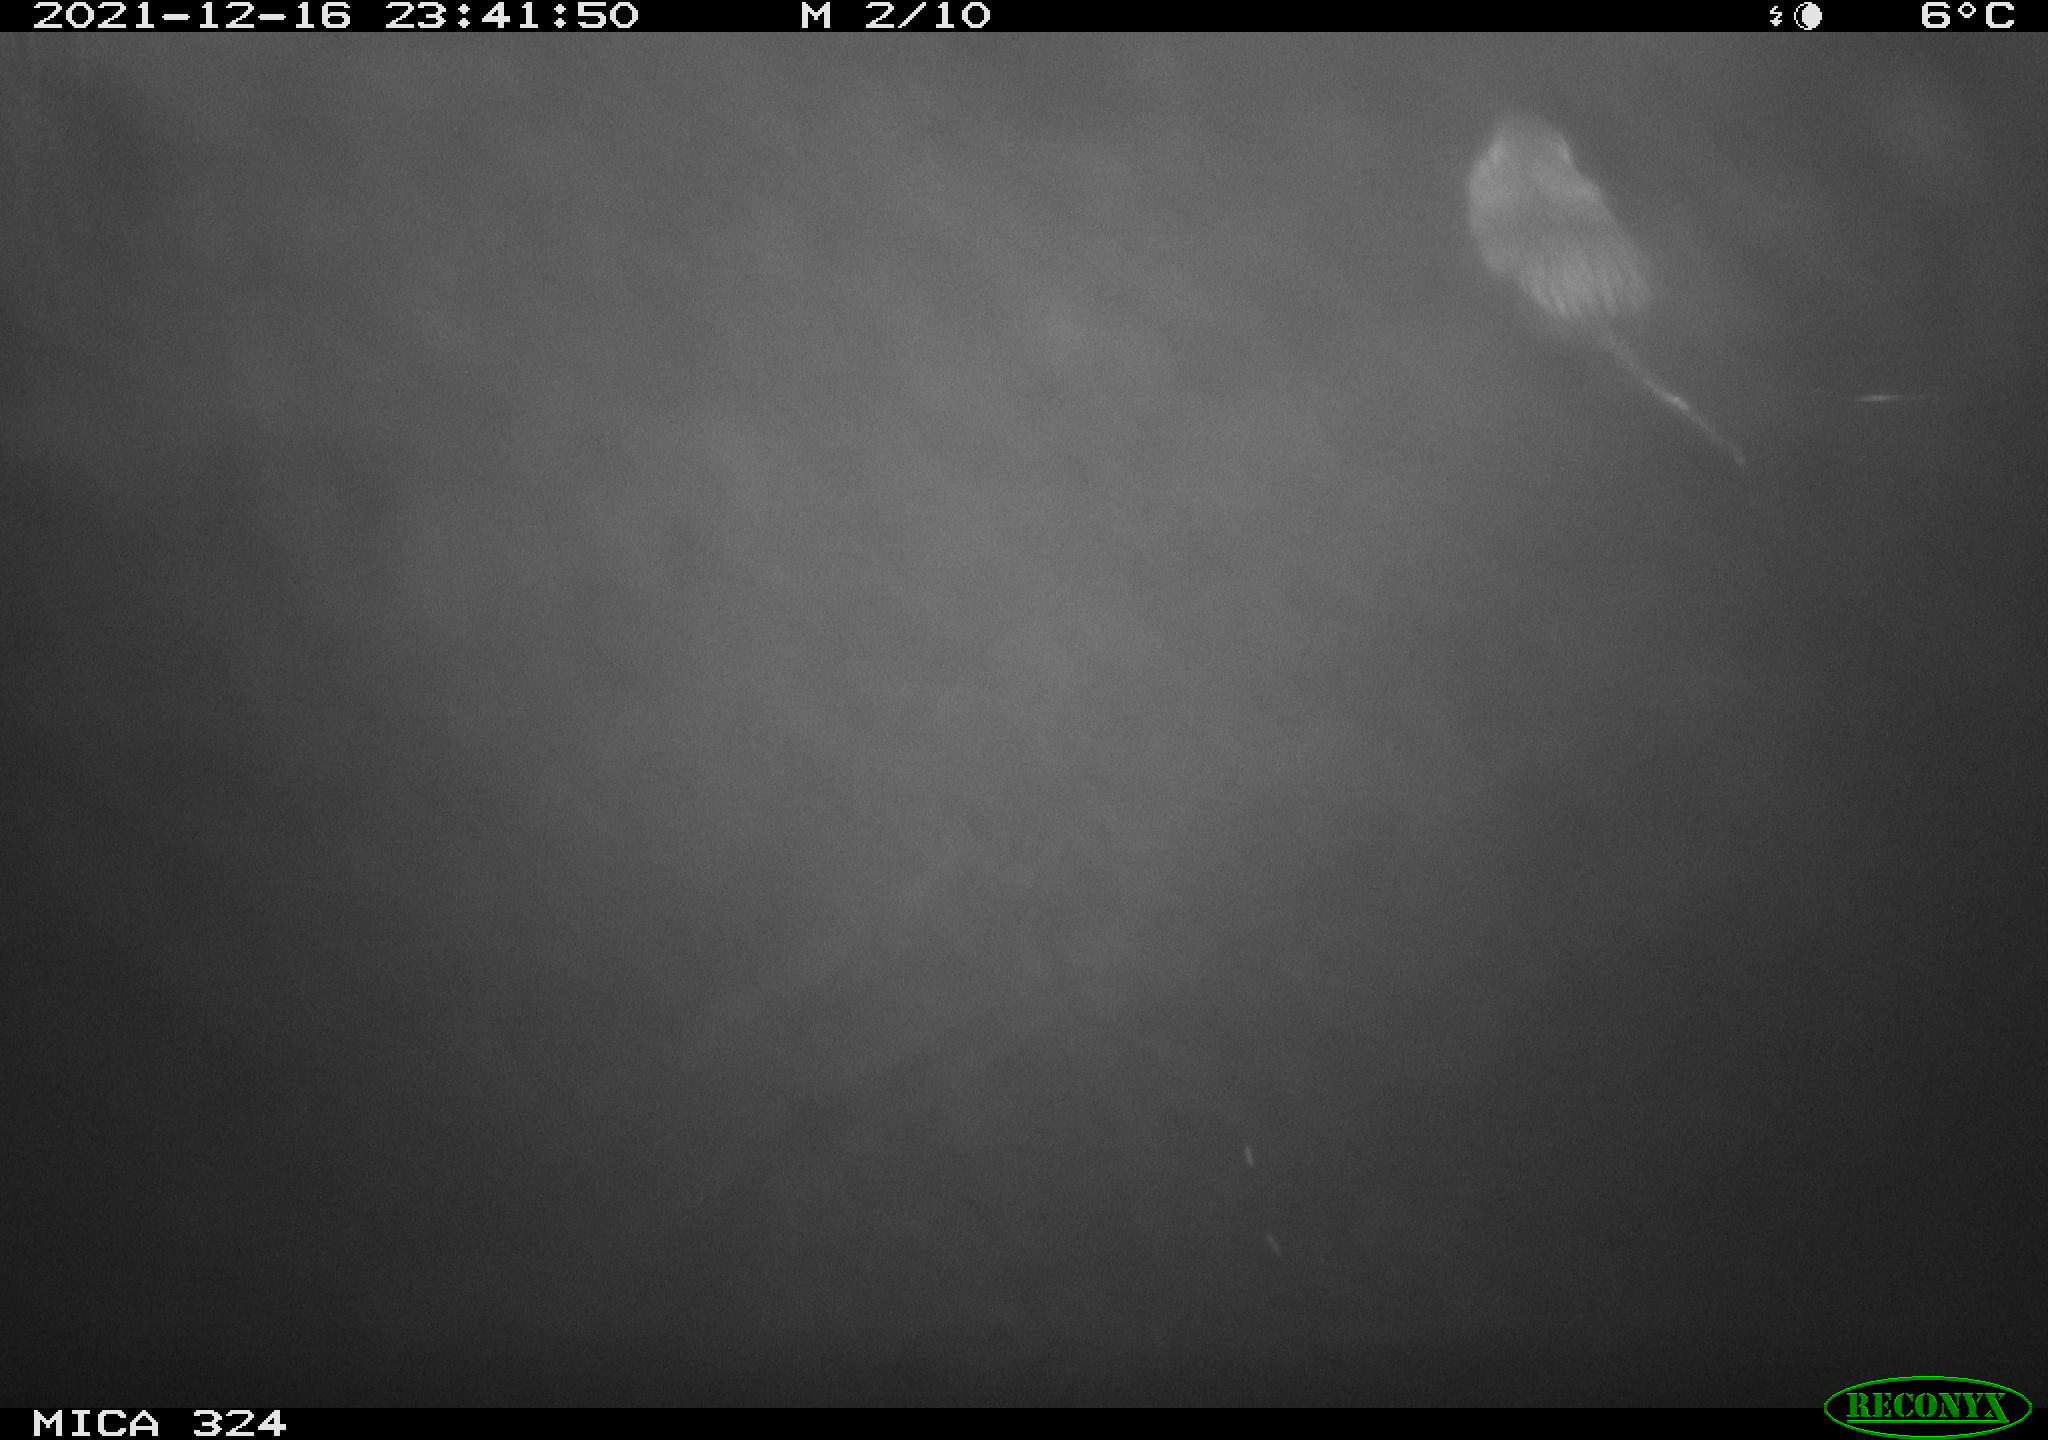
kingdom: Animalia
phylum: Chordata
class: Mammalia
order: Rodentia
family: Myocastoridae
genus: Myocastor
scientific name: Myocastor coypus
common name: Coypu
